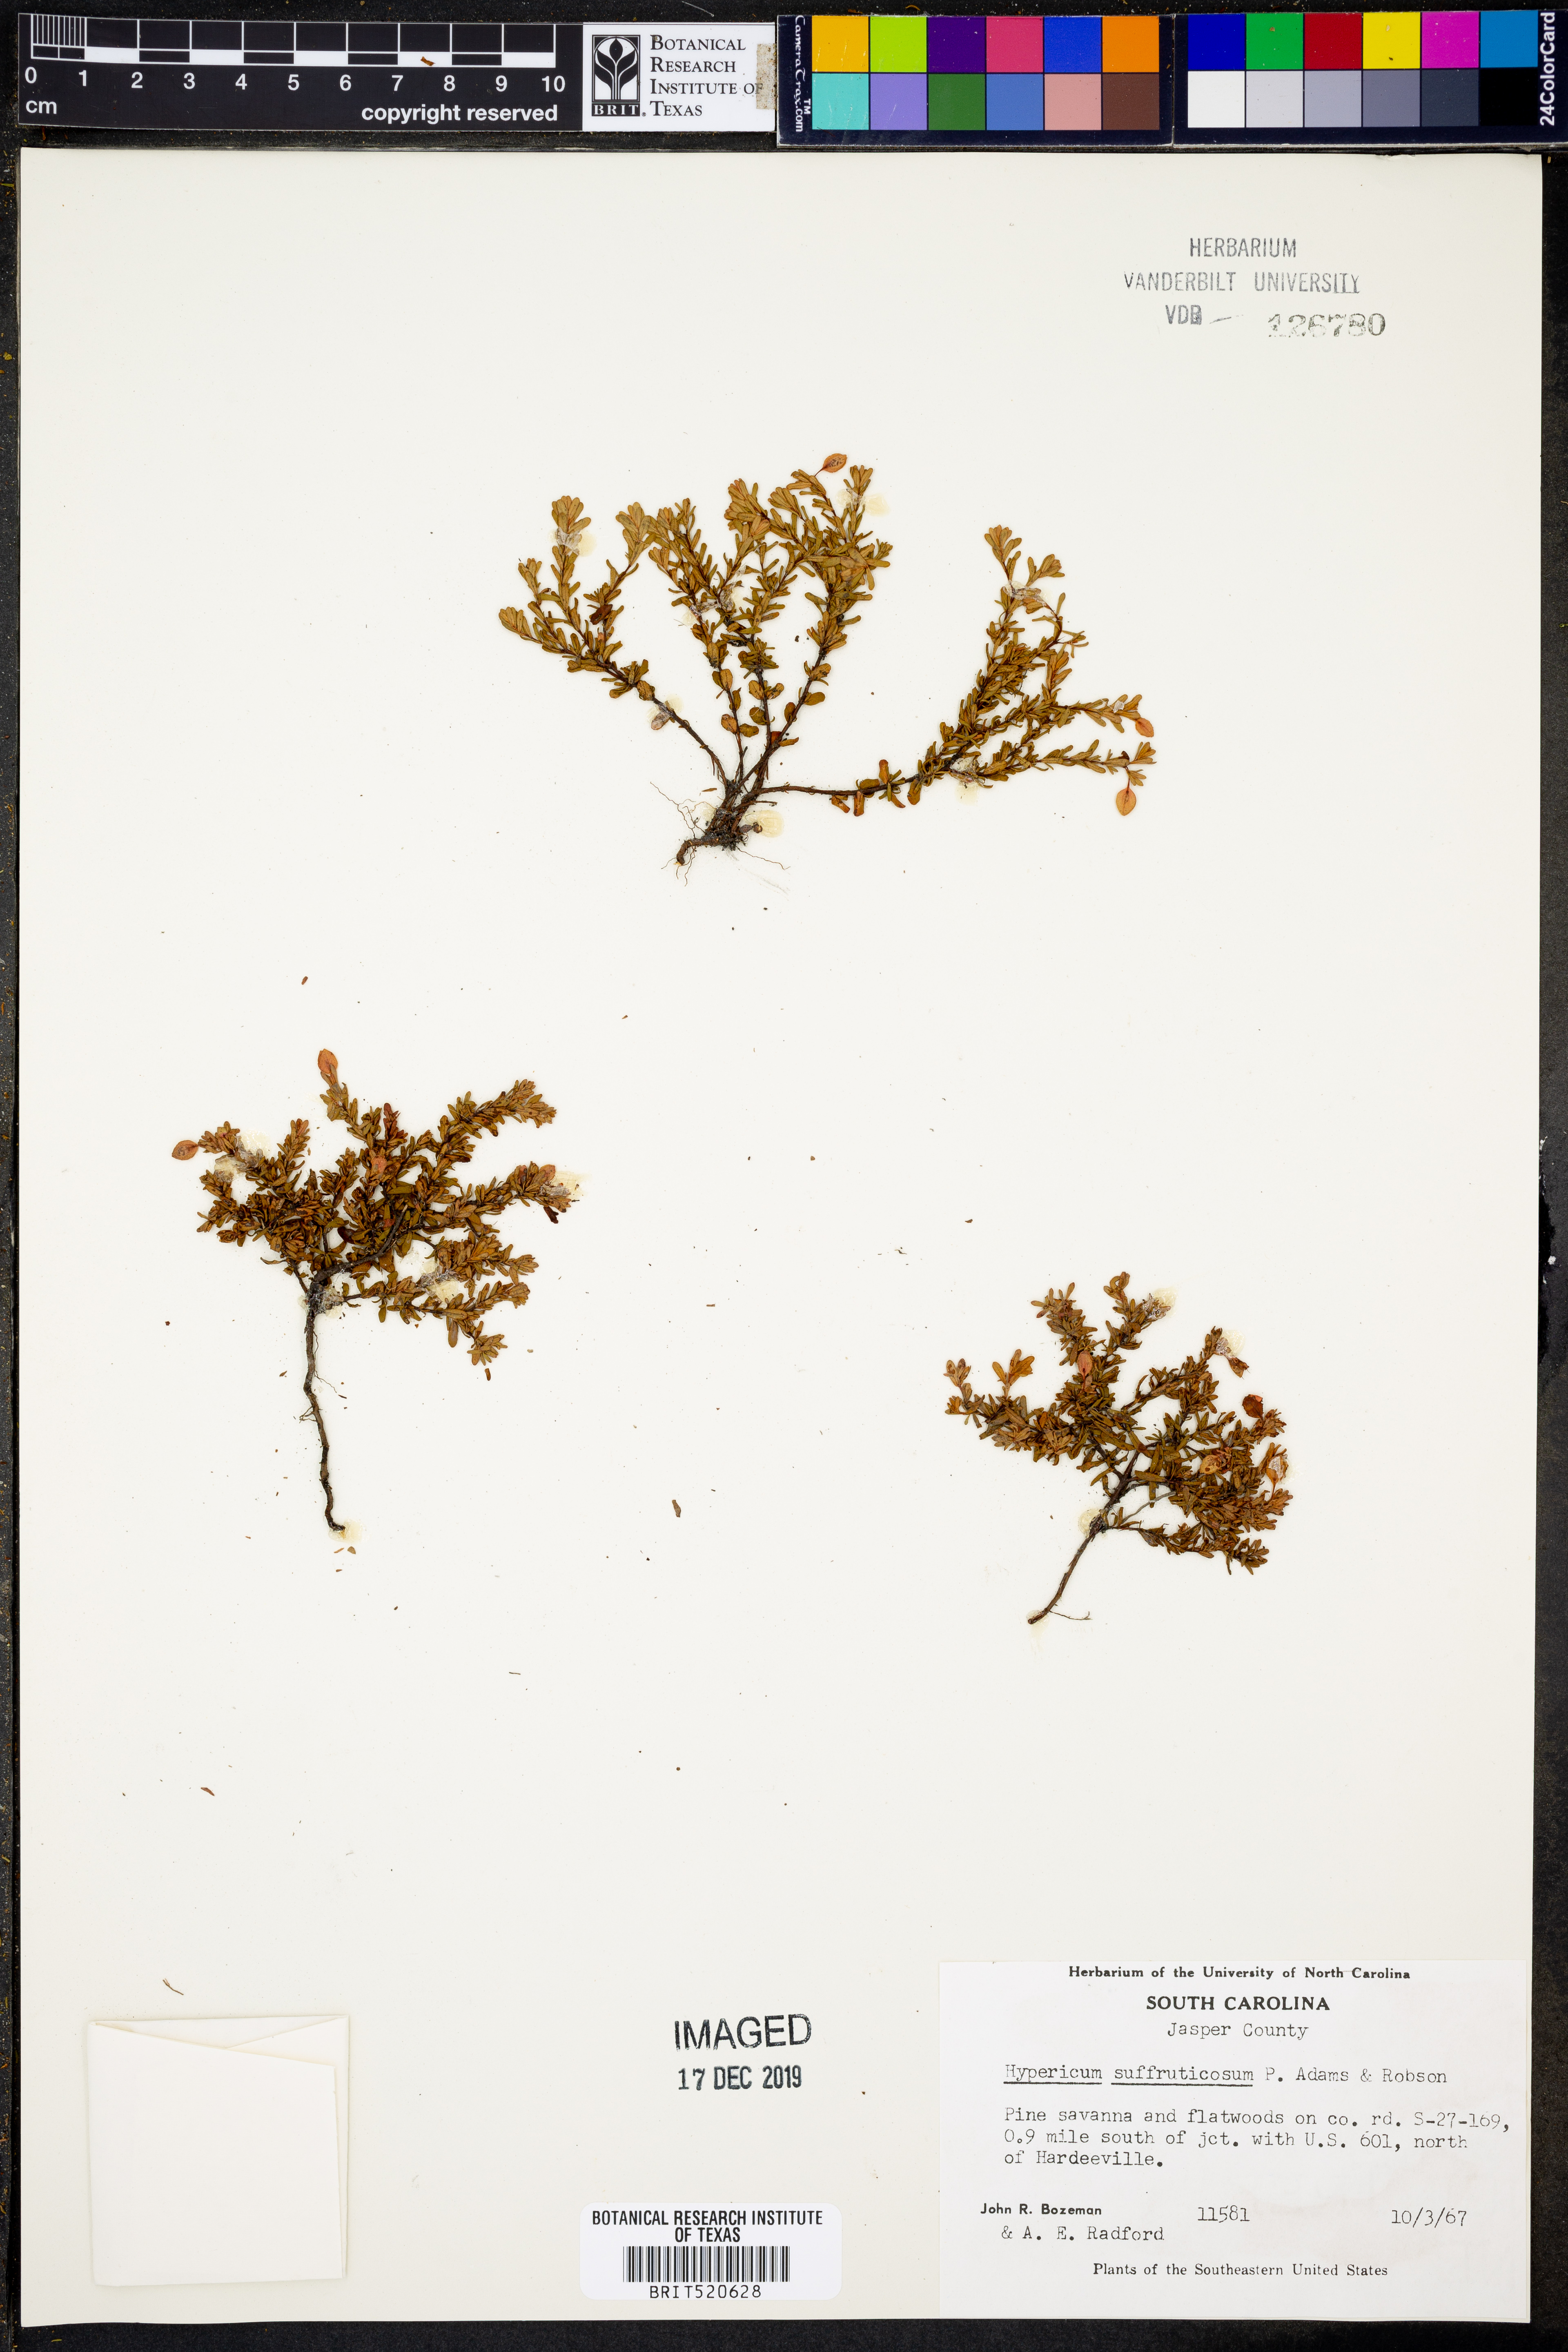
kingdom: Plantae
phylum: Tracheophyta
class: Magnoliopsida
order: Malpighiales
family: Hypericaceae
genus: Hypericum
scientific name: Hypericum suffruticosum
